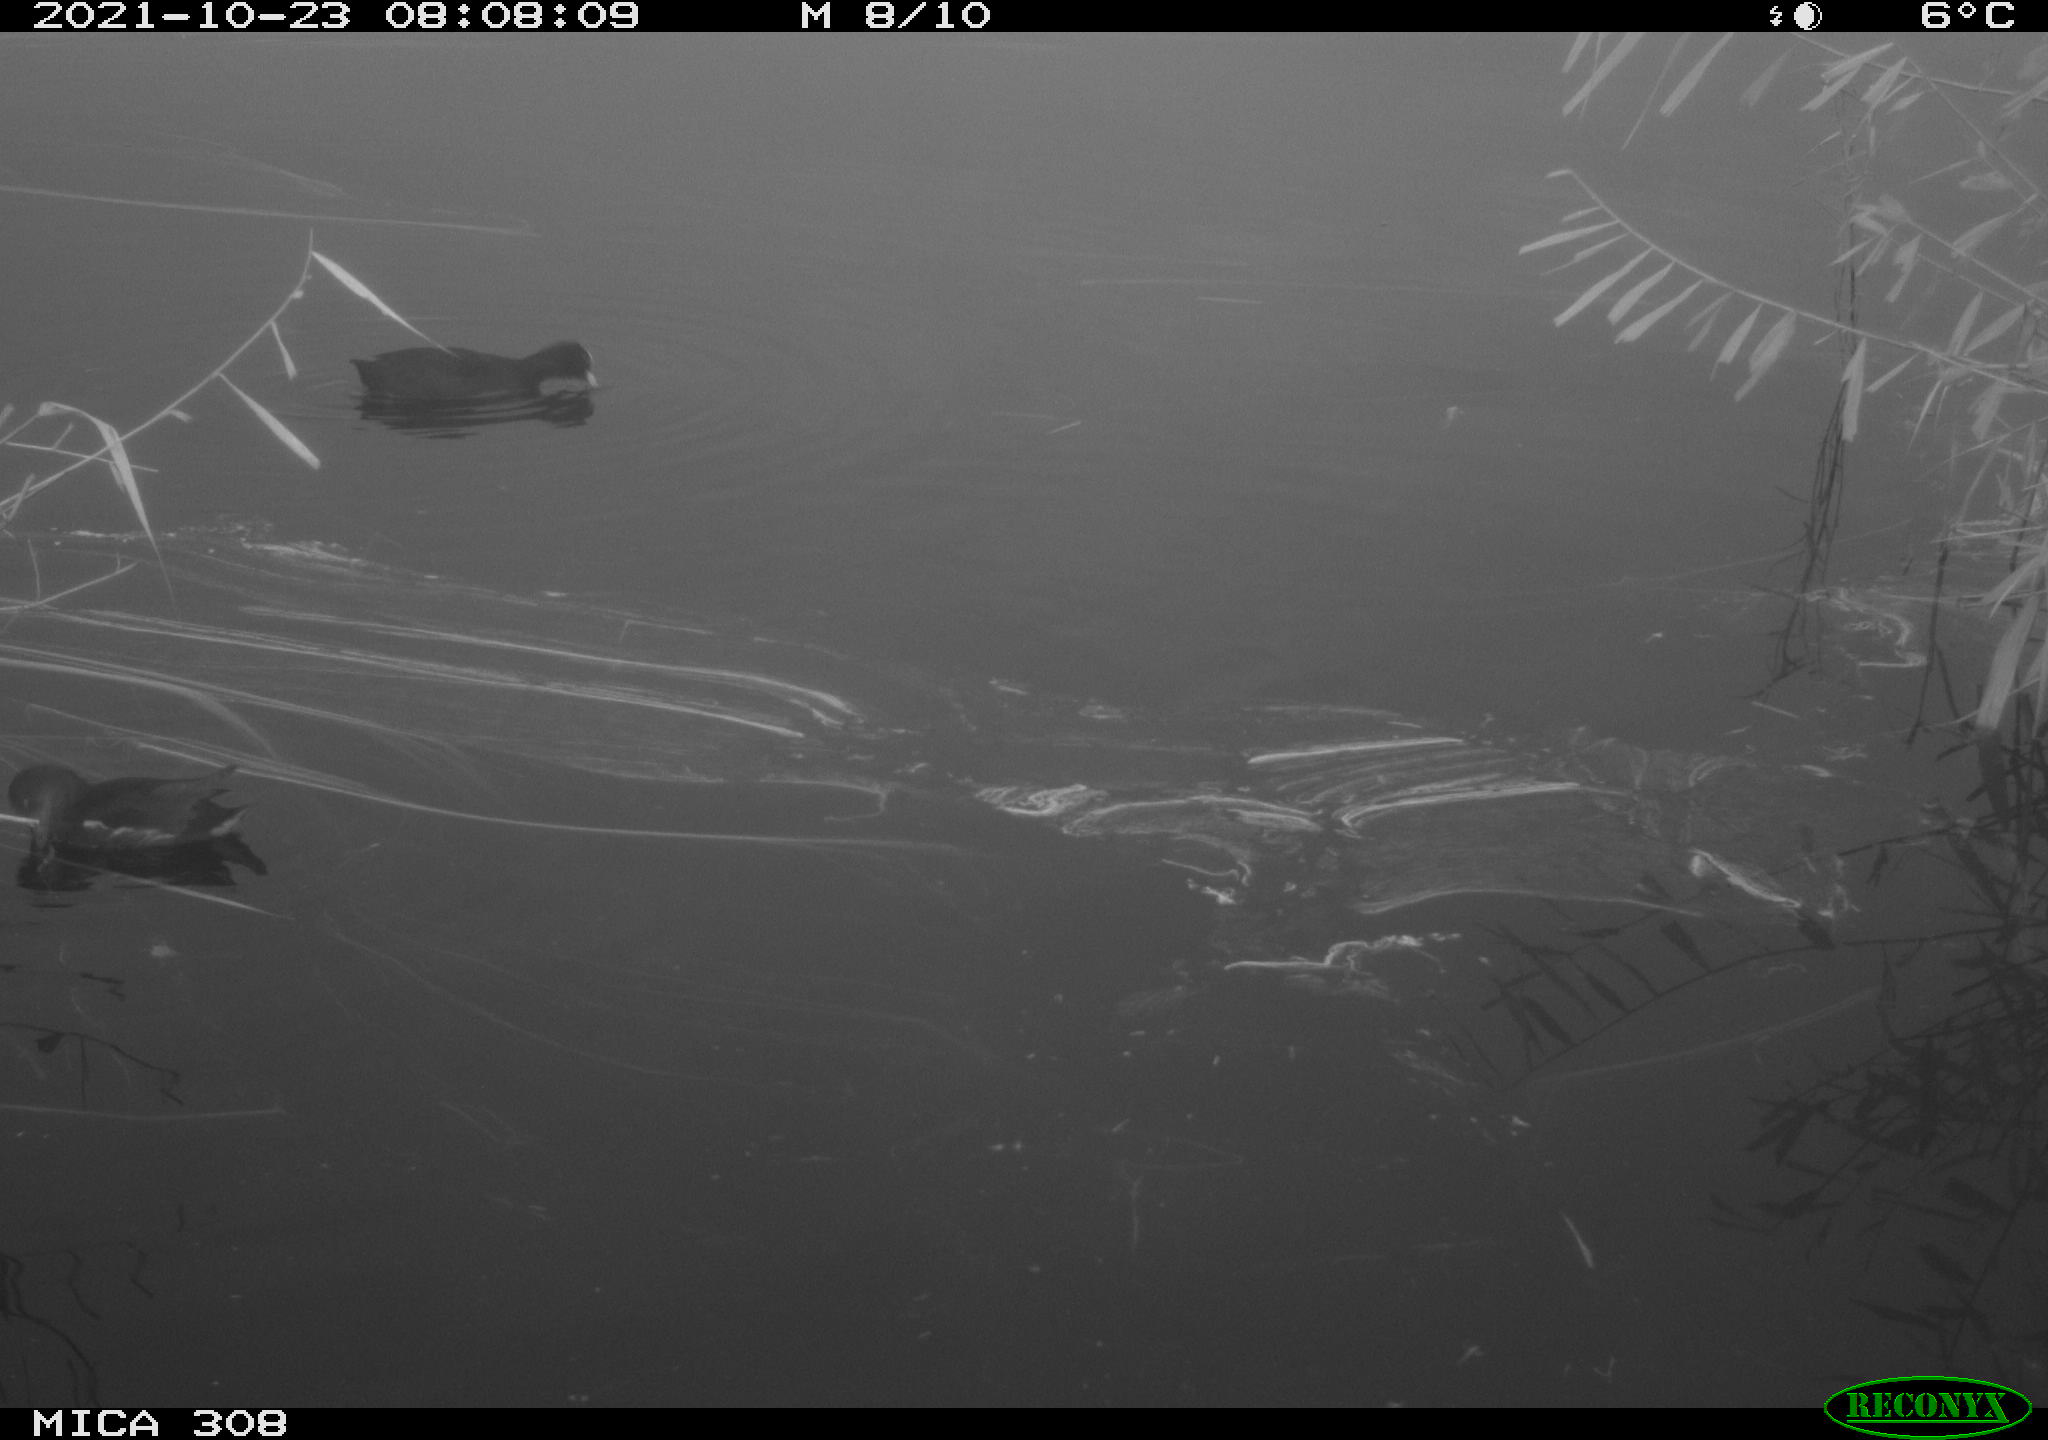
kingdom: Animalia
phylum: Chordata
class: Aves
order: Gruiformes
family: Rallidae
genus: Gallinula
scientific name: Gallinula chloropus
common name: Common moorhen
